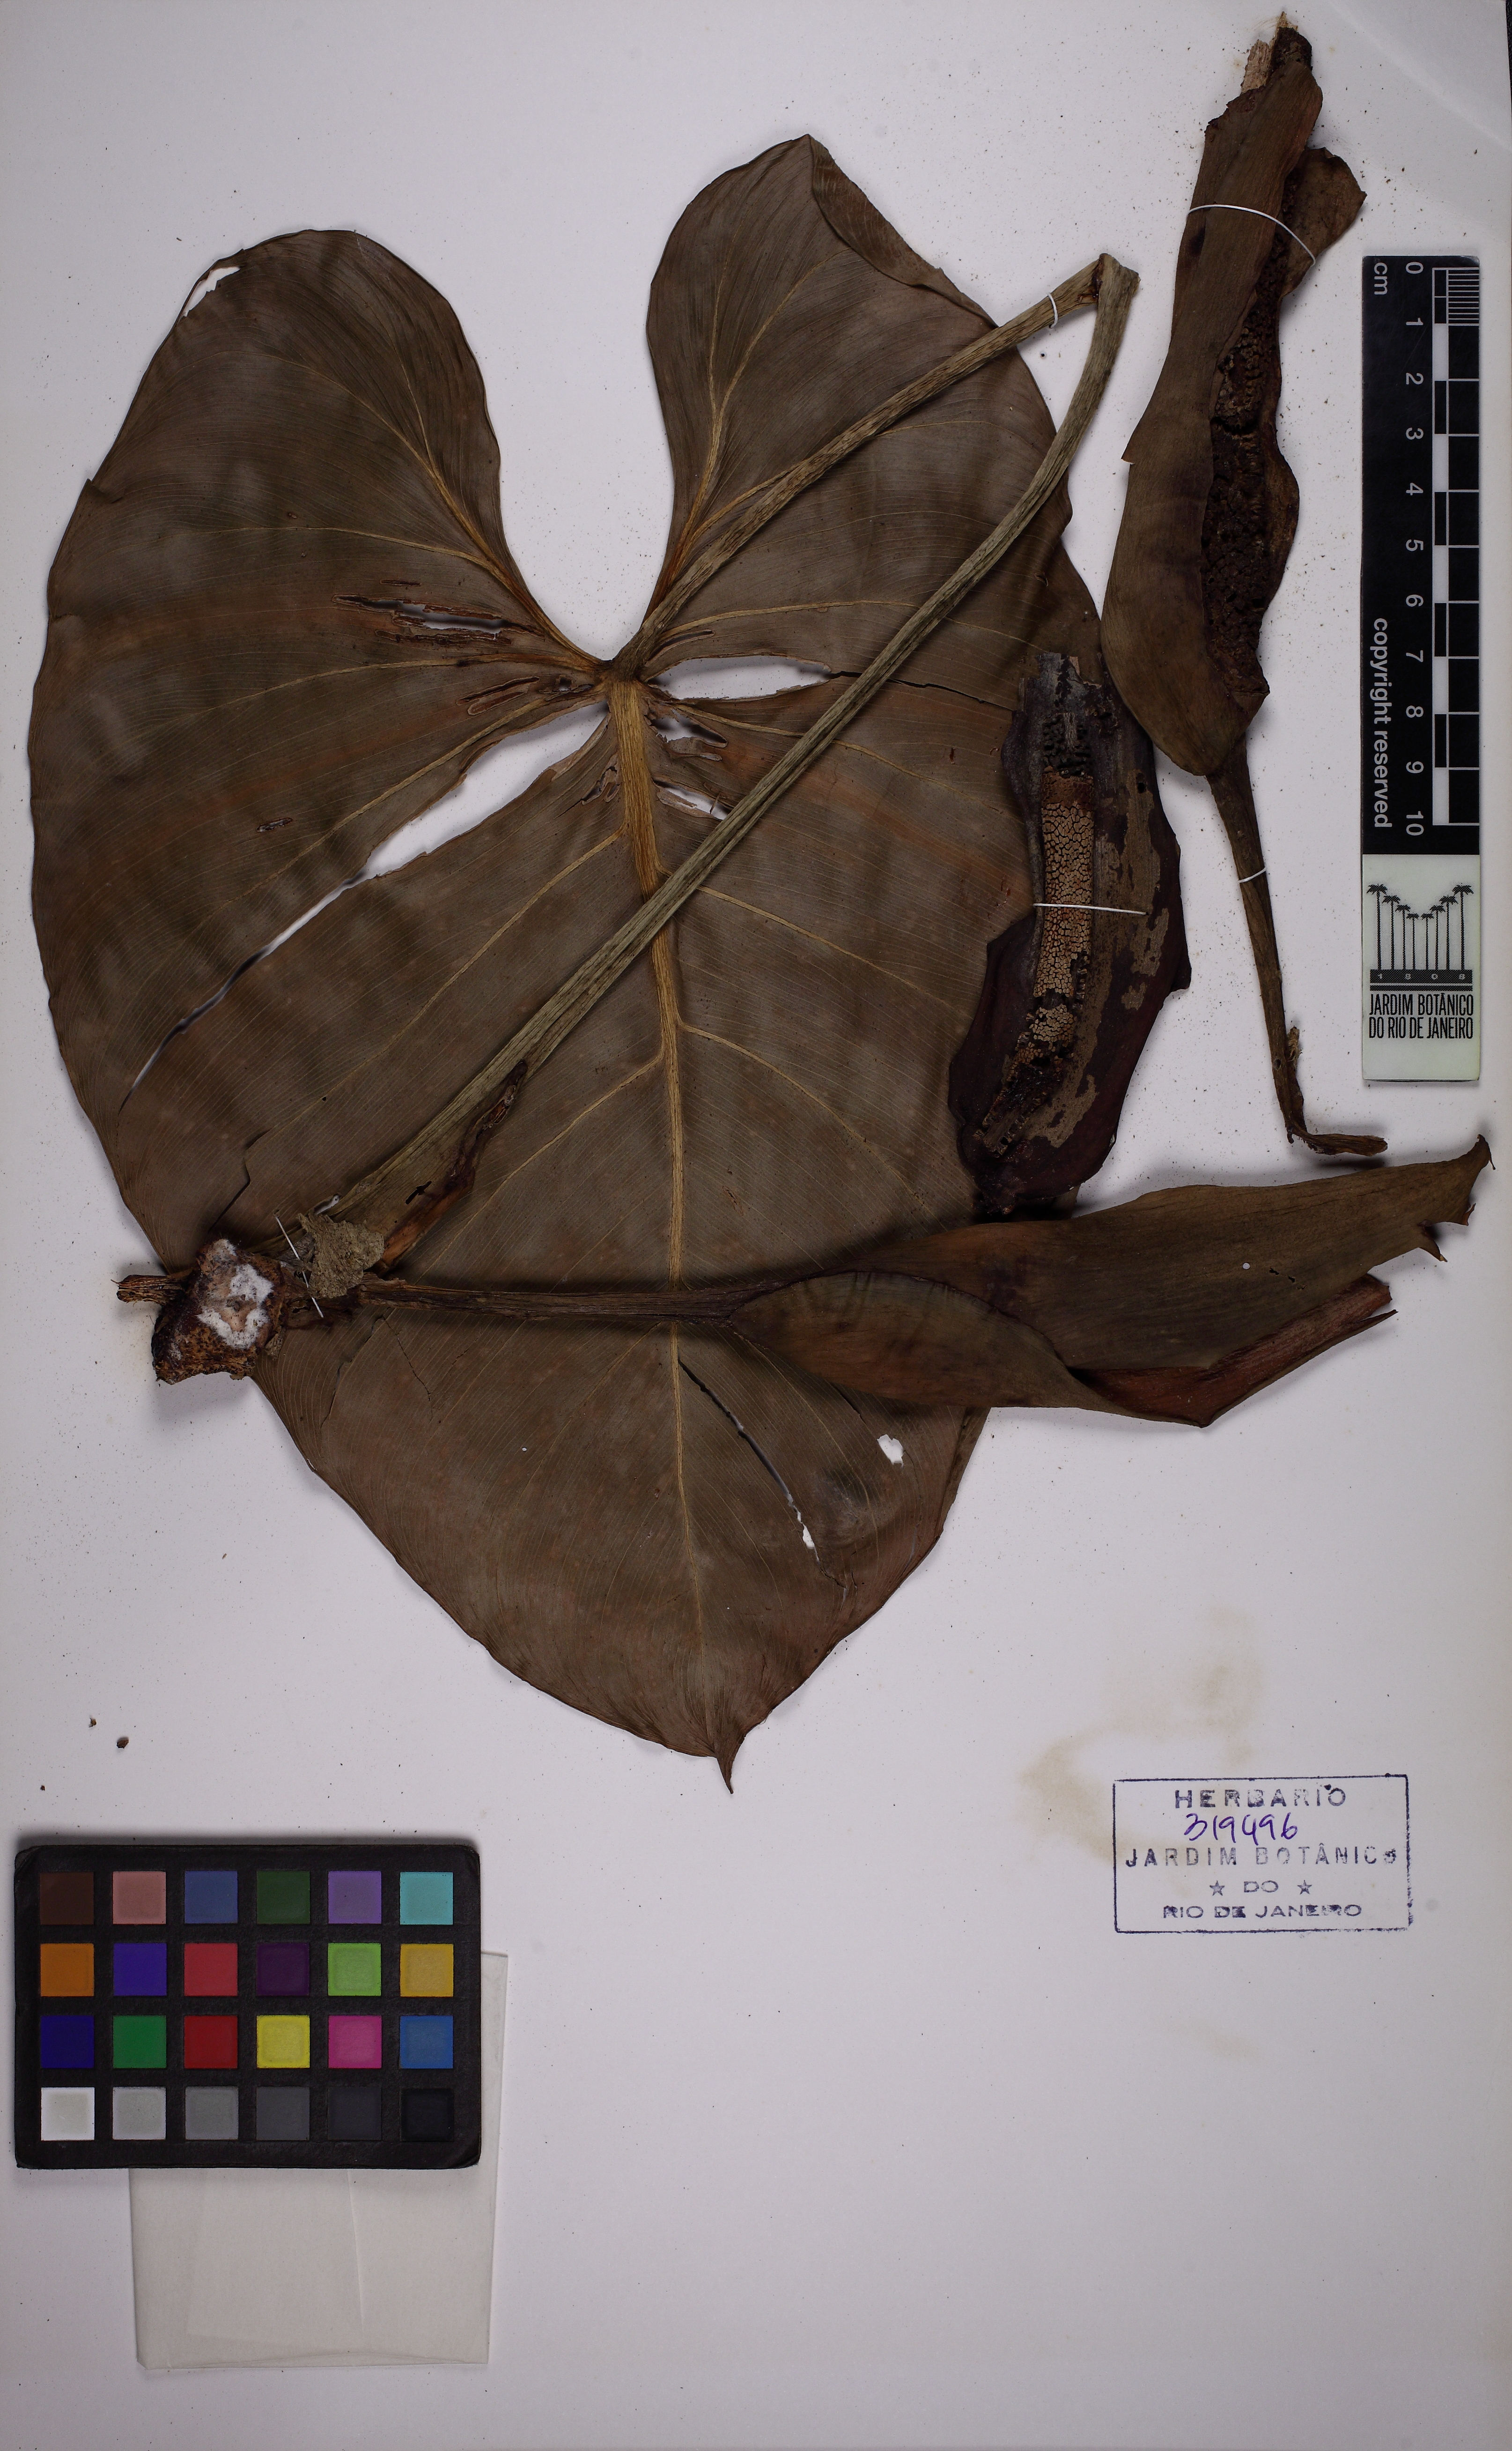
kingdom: Plantae
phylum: Tracheophyta
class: Liliopsida
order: Alismatales
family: Araceae
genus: Philodendron
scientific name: Philodendron roseopetiolatum
